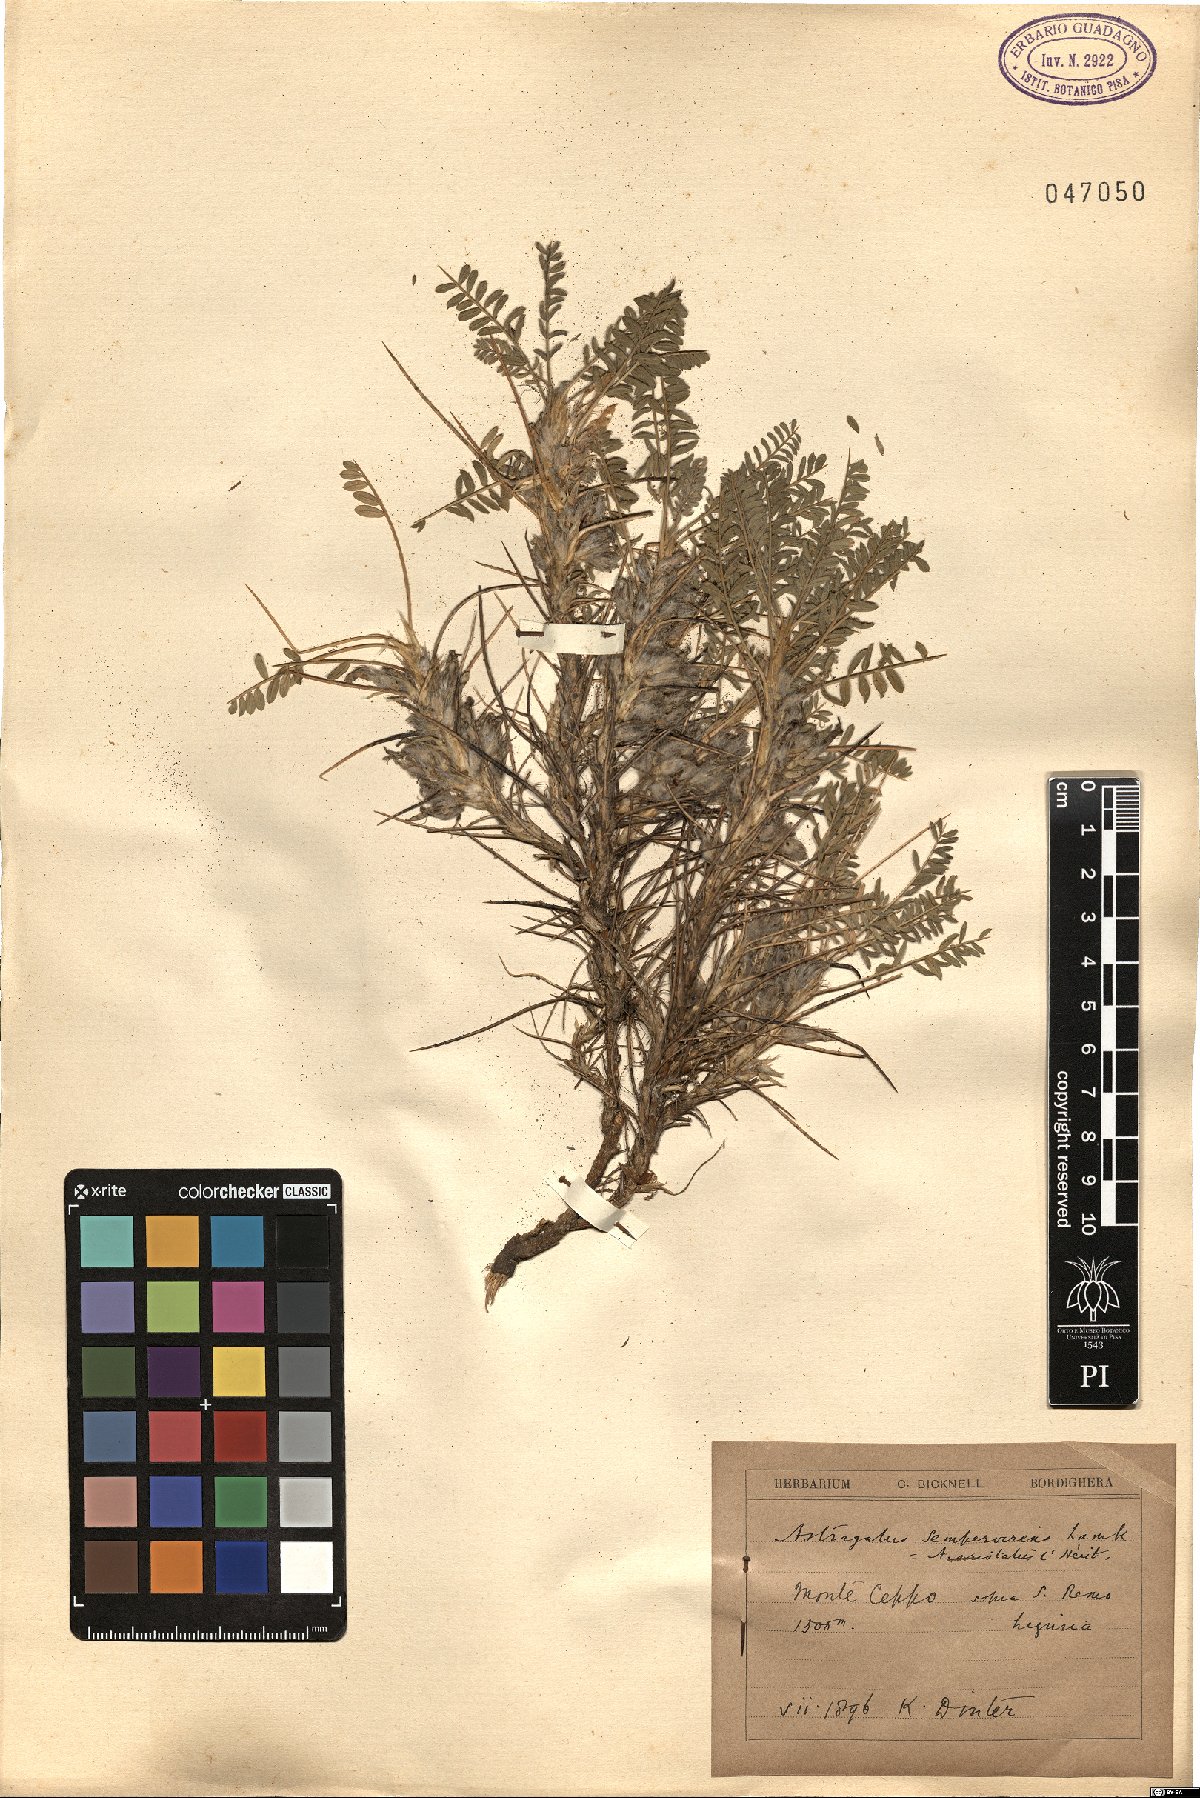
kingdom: Plantae
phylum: Tracheophyta
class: Magnoliopsida
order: Fabales
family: Fabaceae
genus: Astragalus
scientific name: Astragalus sempervirens
